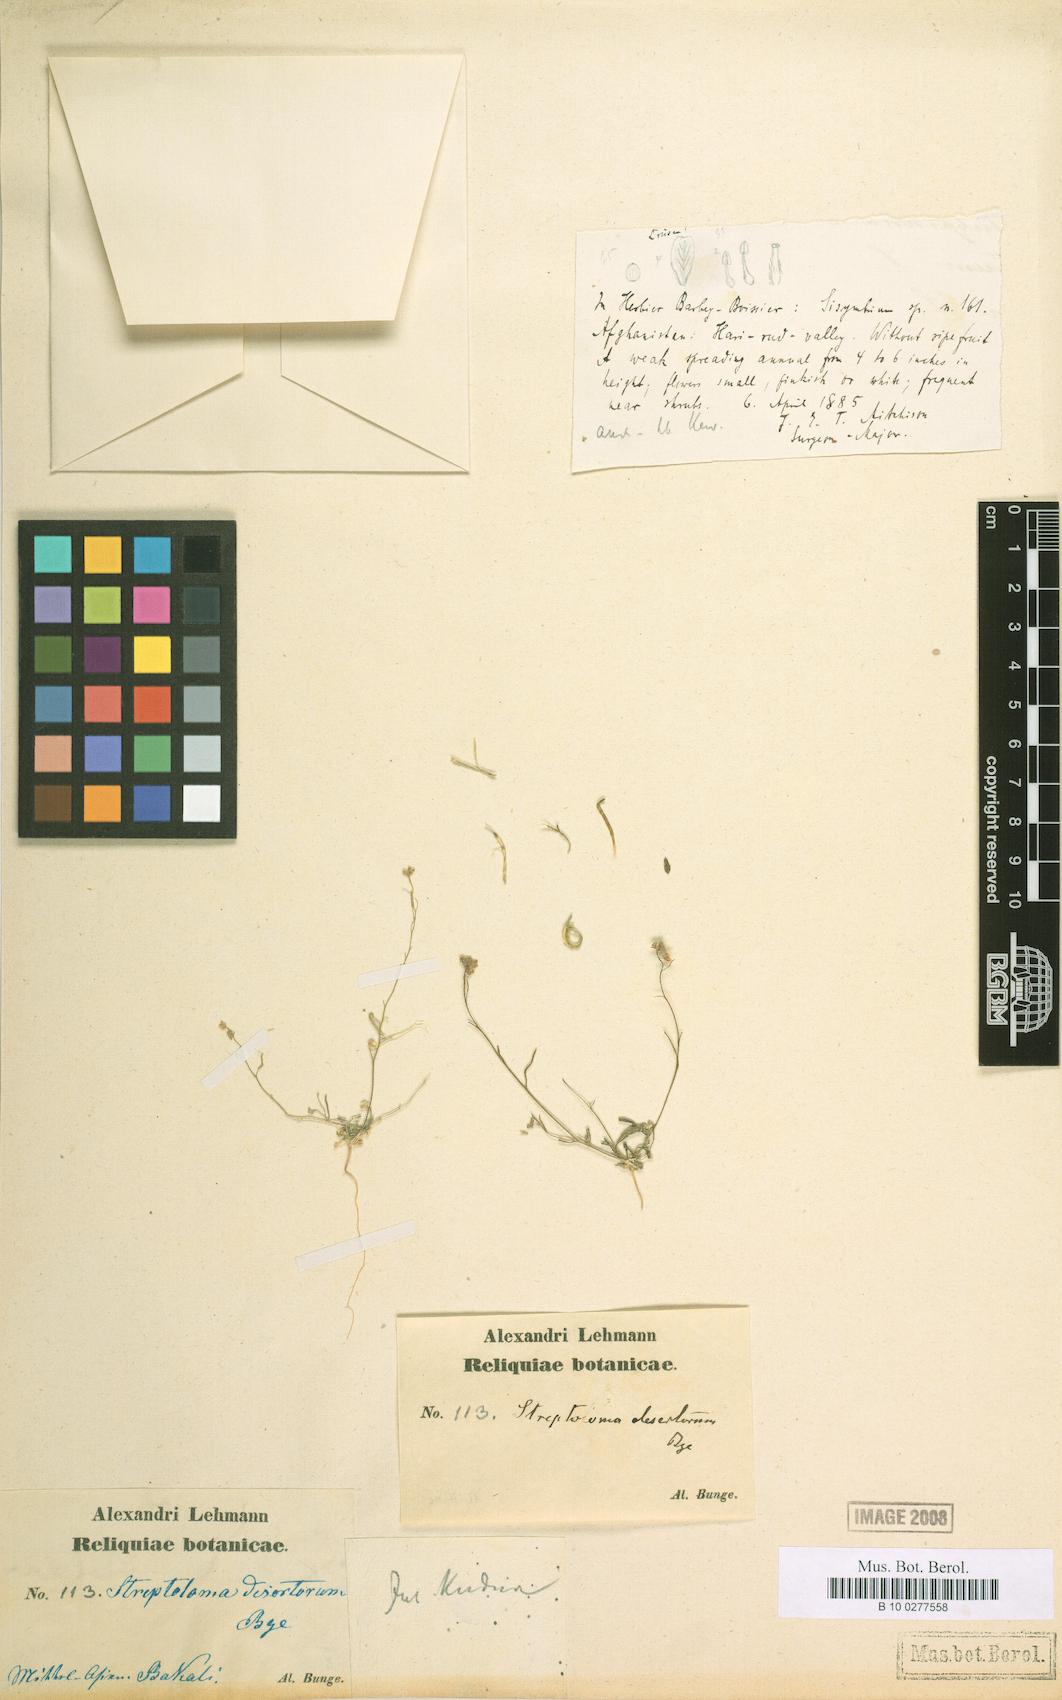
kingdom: Plantae
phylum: Tracheophyta
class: Magnoliopsida
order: Brassicales
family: Brassicaceae
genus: Streptoloma
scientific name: Streptoloma desertorum
